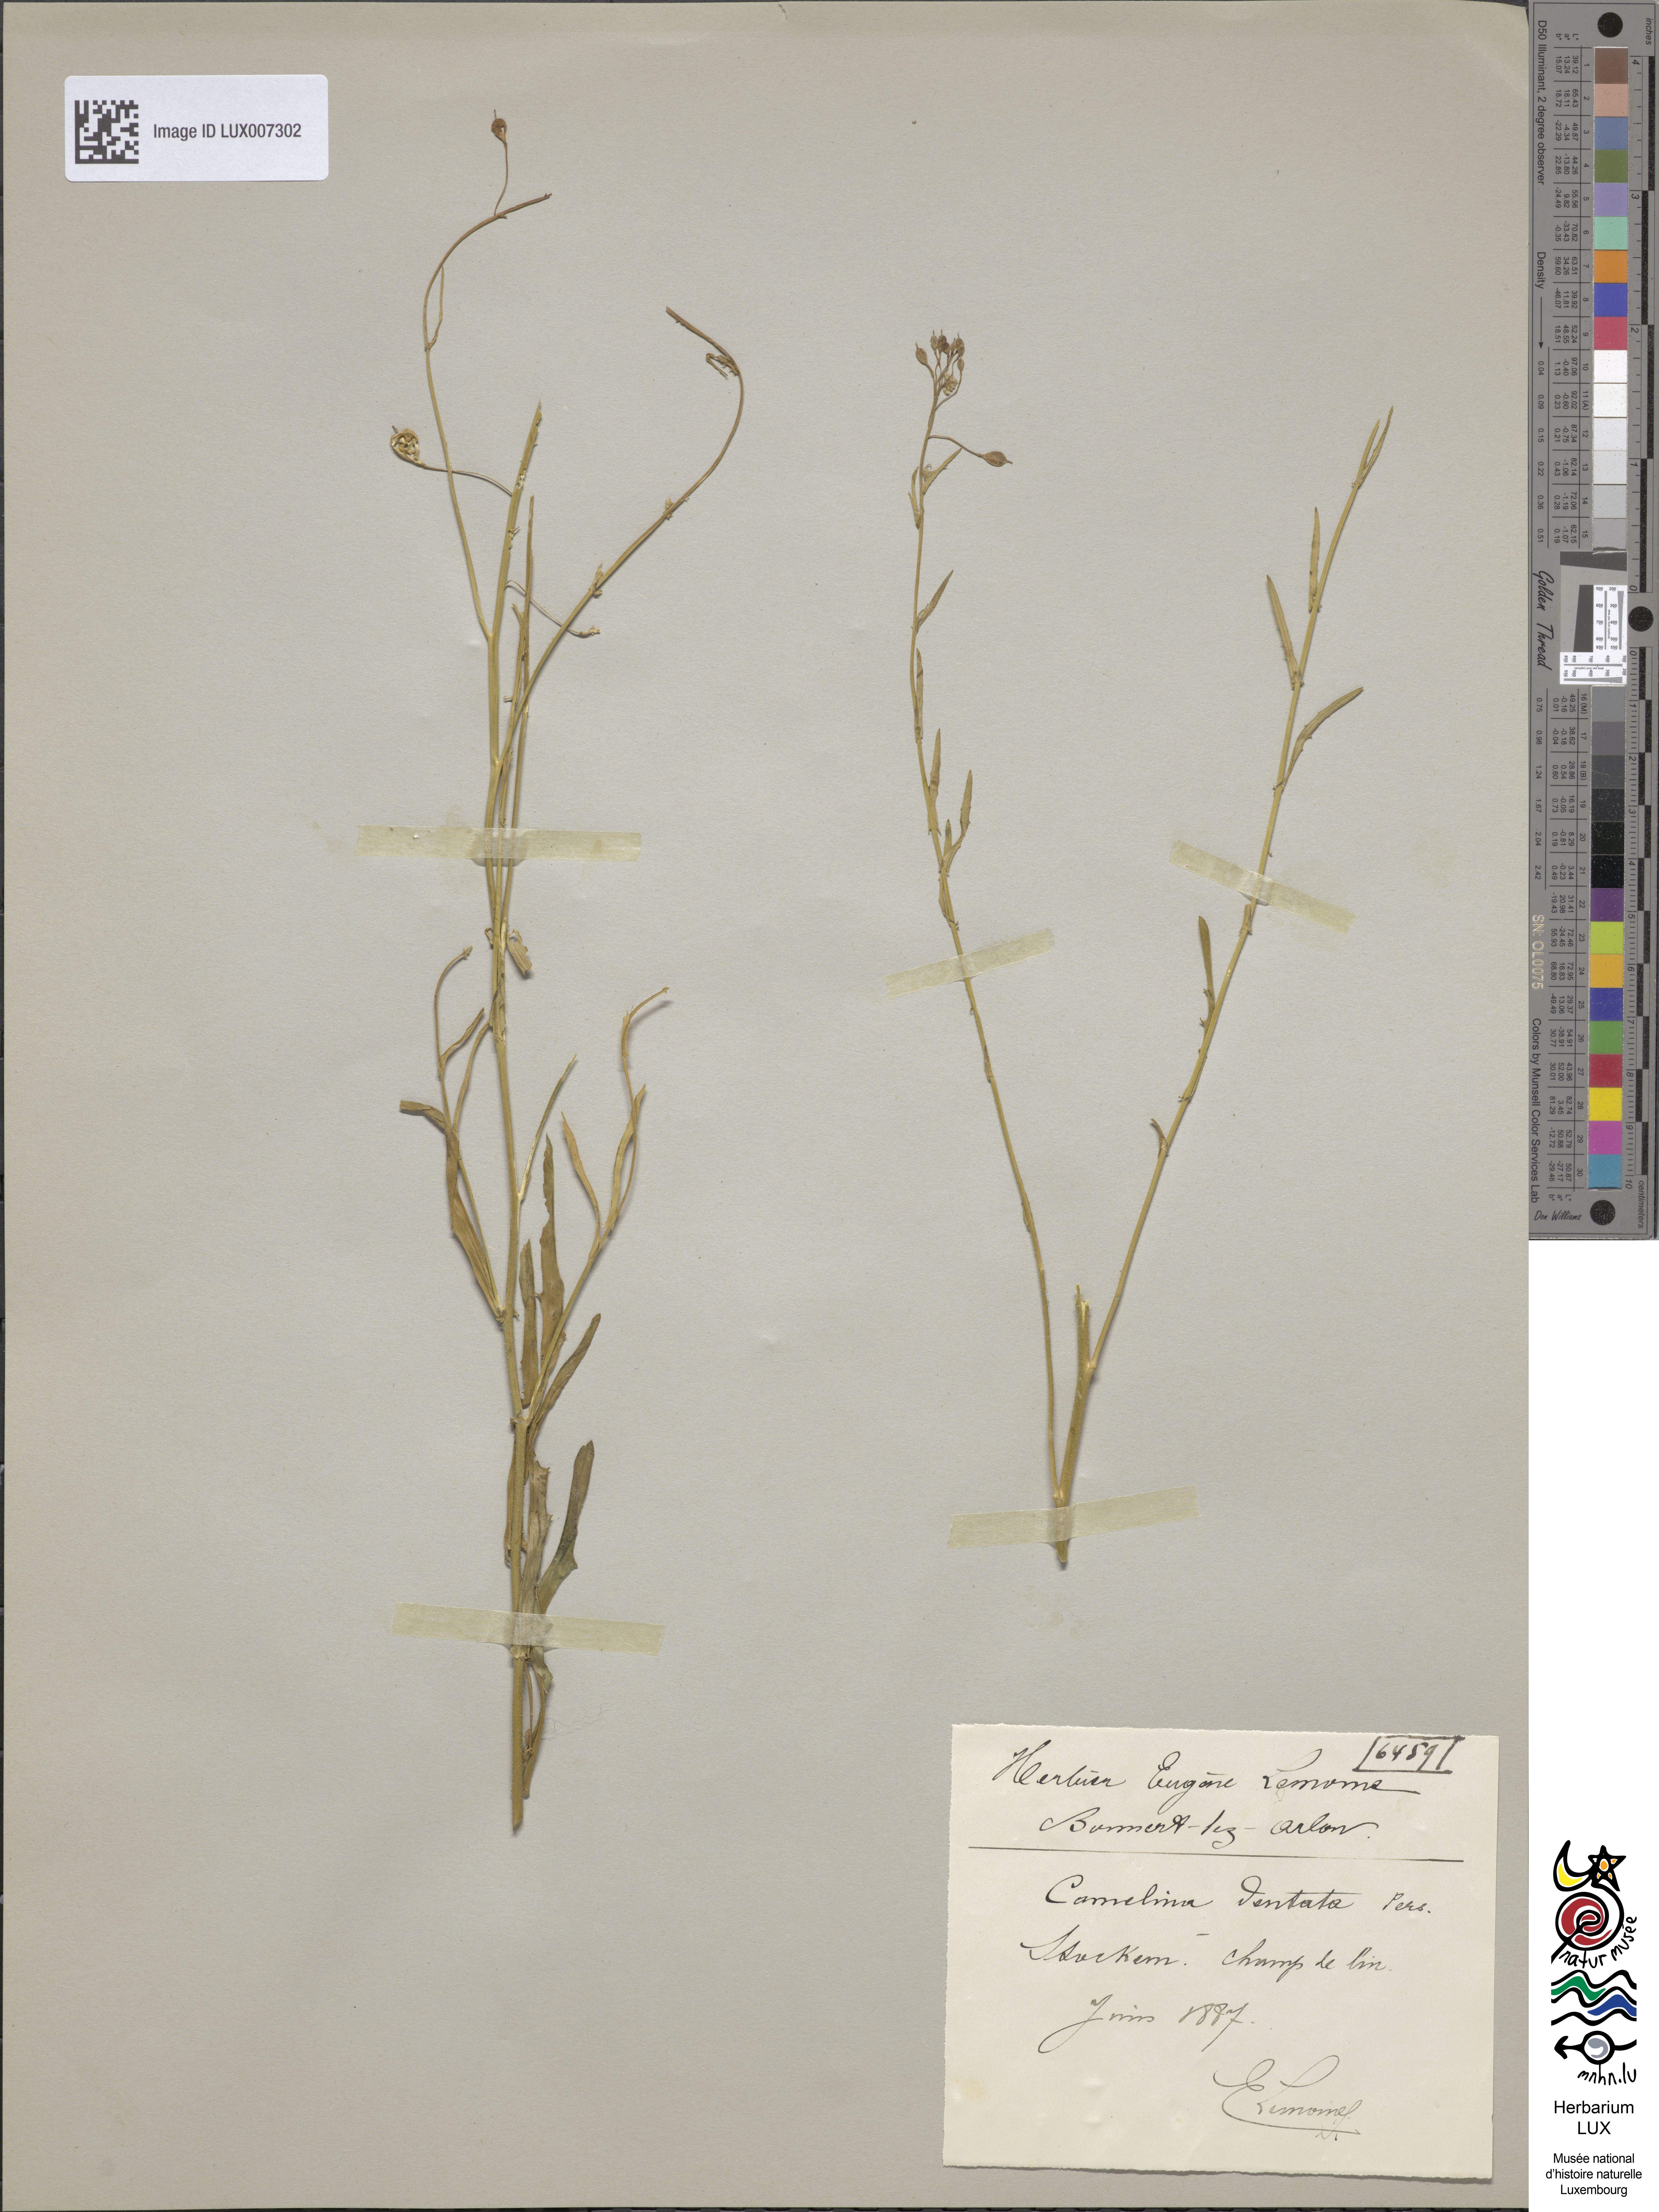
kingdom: Plantae
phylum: Tracheophyta
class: Magnoliopsida
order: Brassicales
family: Brassicaceae
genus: Camelina
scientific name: Camelina alyssum
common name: Gold-of-pleasure
